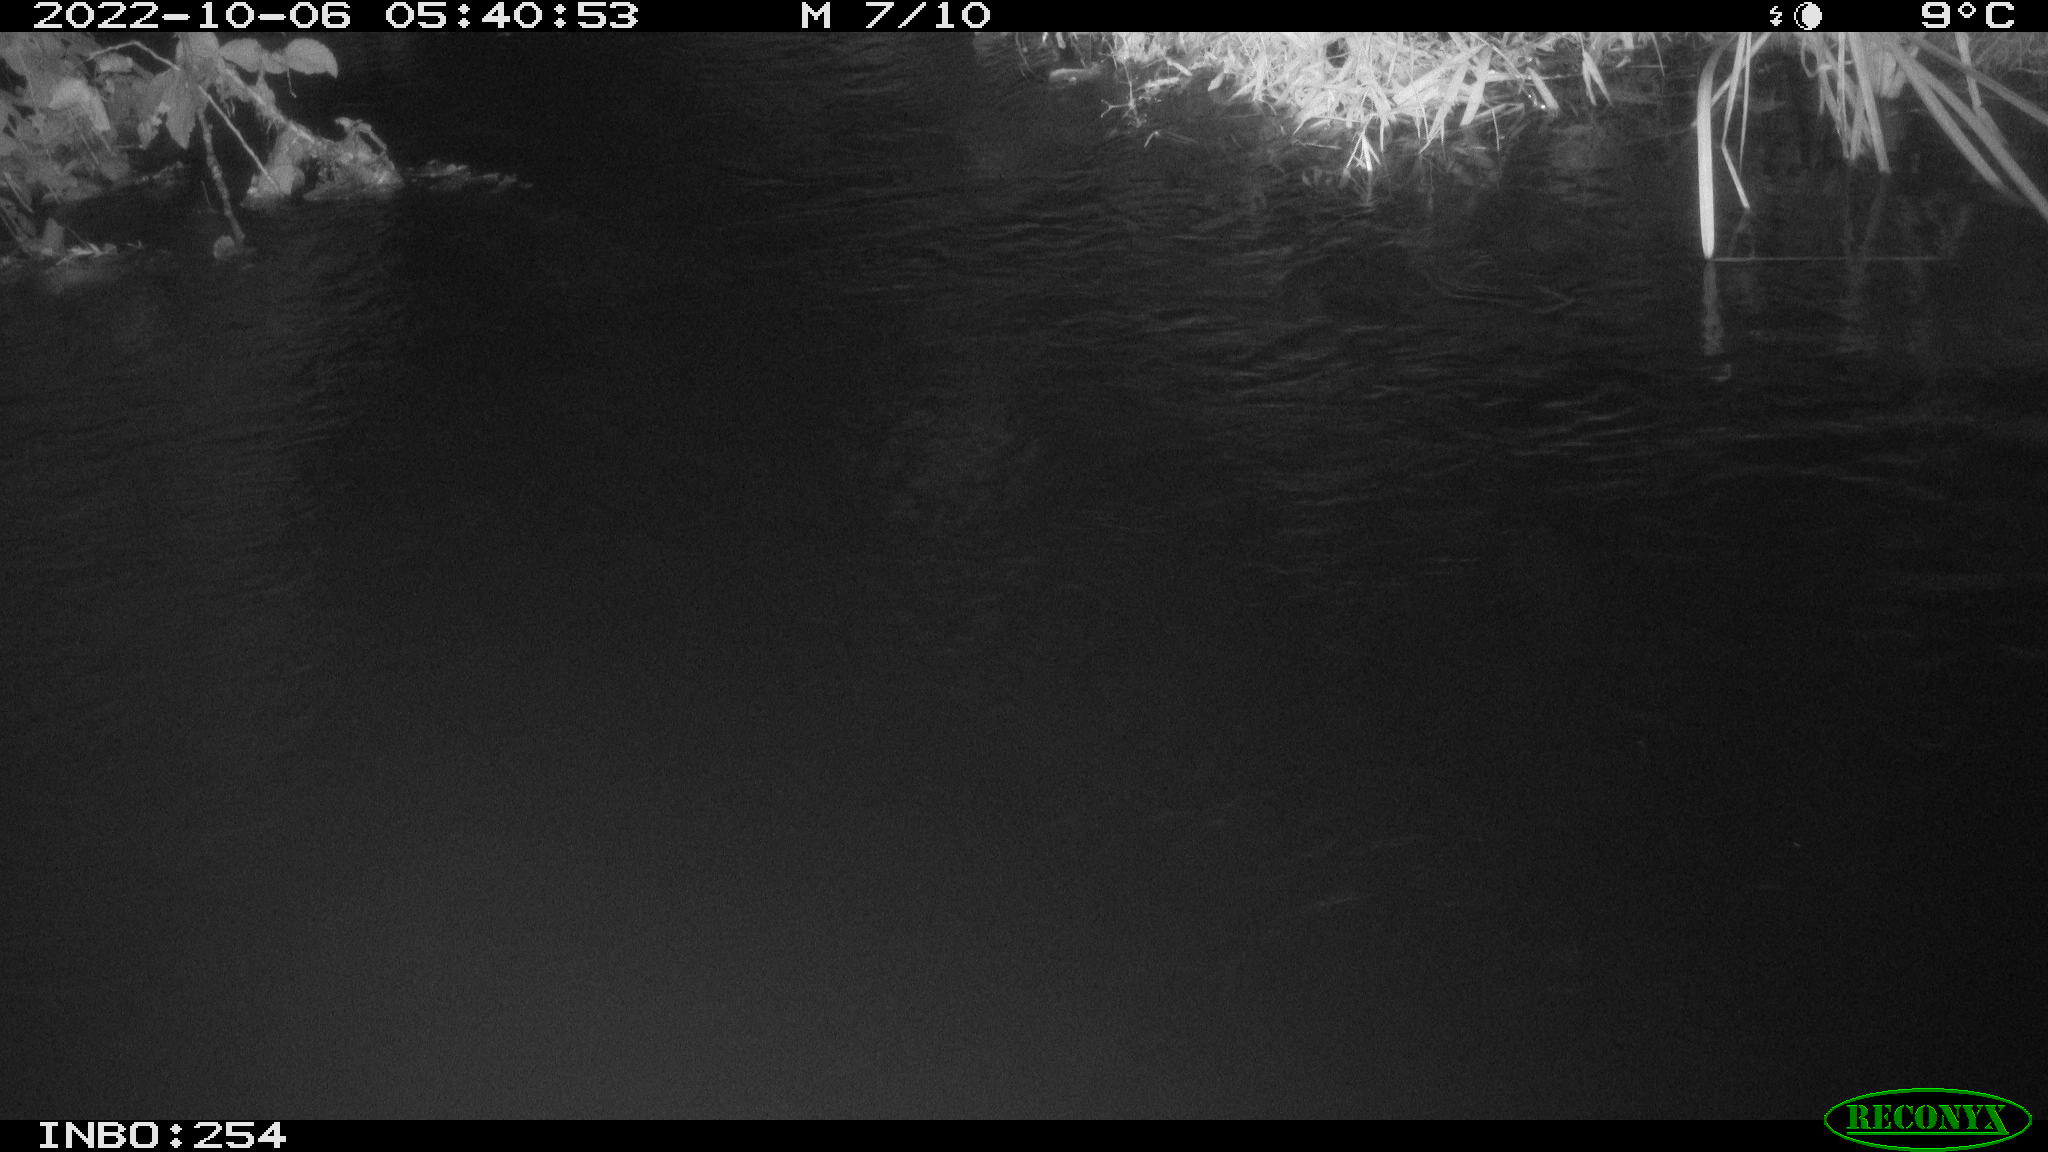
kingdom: Animalia
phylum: Chordata
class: Aves
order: Anseriformes
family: Anatidae
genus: Anas
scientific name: Anas
